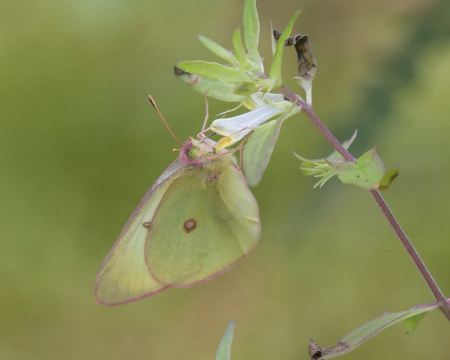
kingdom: Animalia
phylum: Arthropoda
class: Insecta
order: Lepidoptera
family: Pieridae
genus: Colias
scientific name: Colias interior
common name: Pink-edged Sulphur
